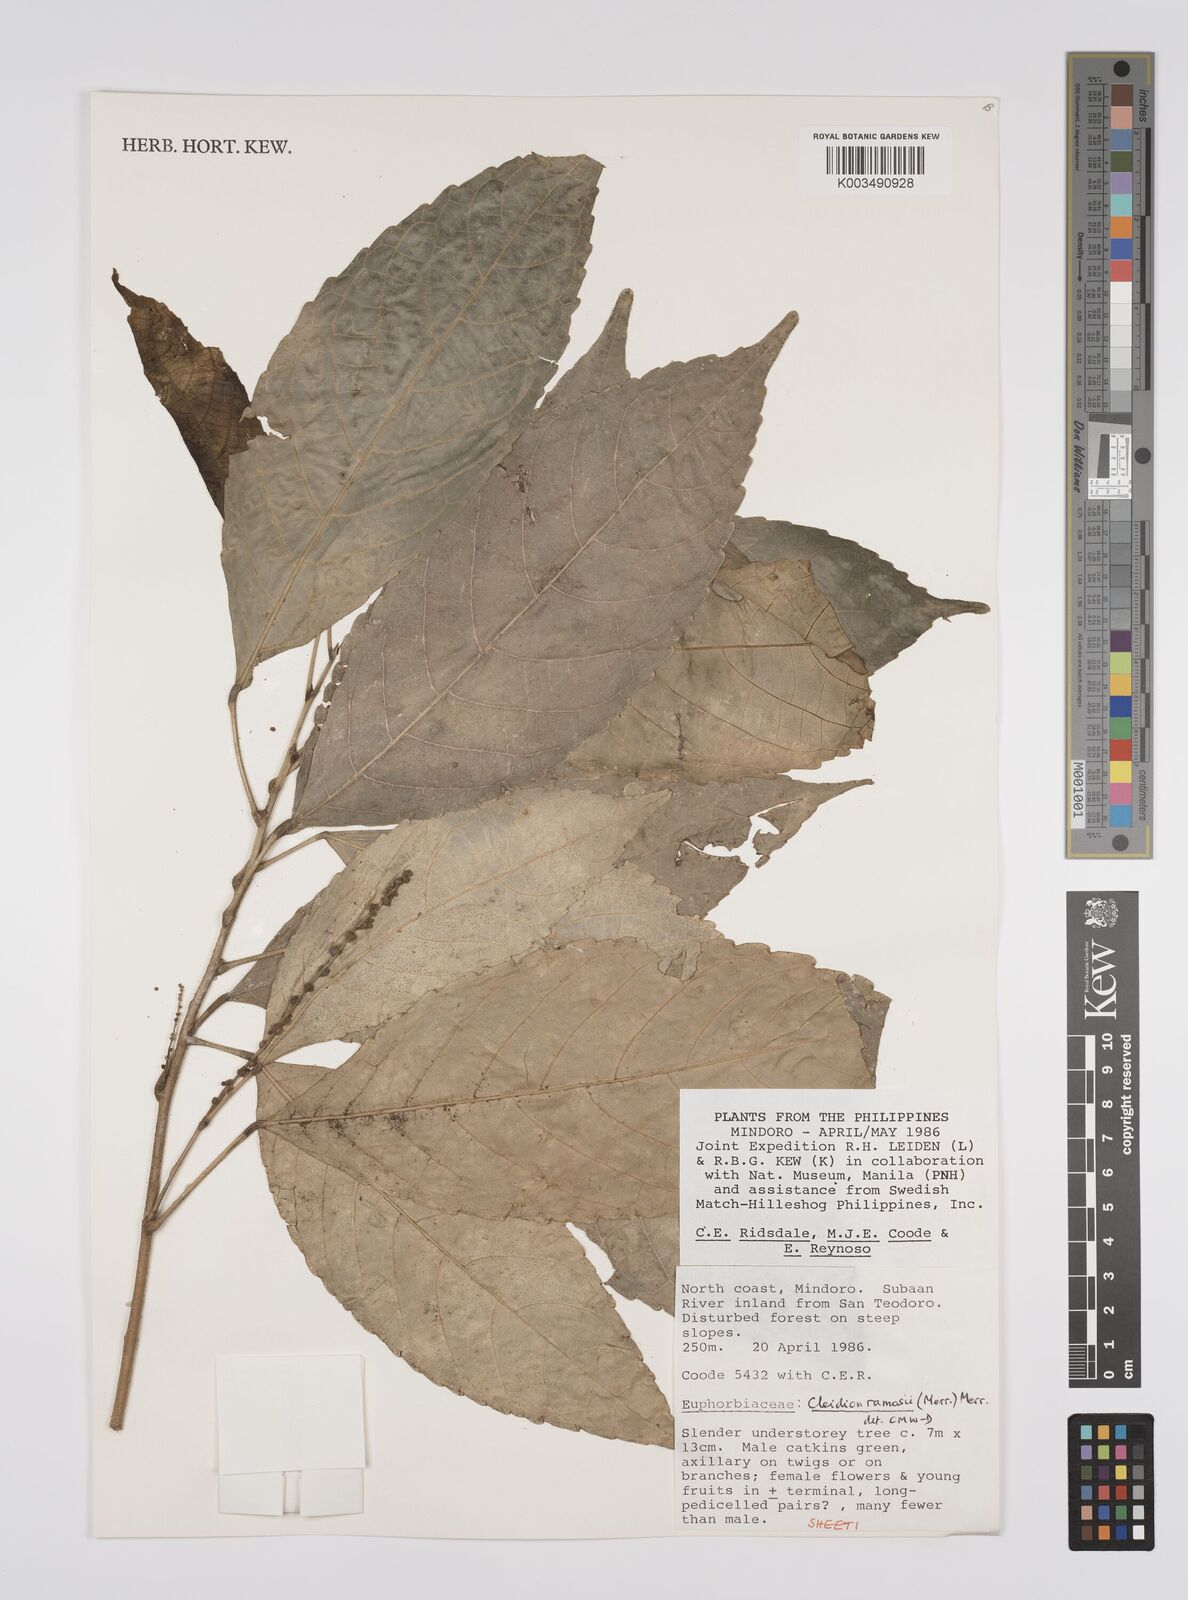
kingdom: Plantae
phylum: Tracheophyta
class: Magnoliopsida
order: Malpighiales
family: Euphorbiaceae
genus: Cleidion
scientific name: Cleidion ramosii
